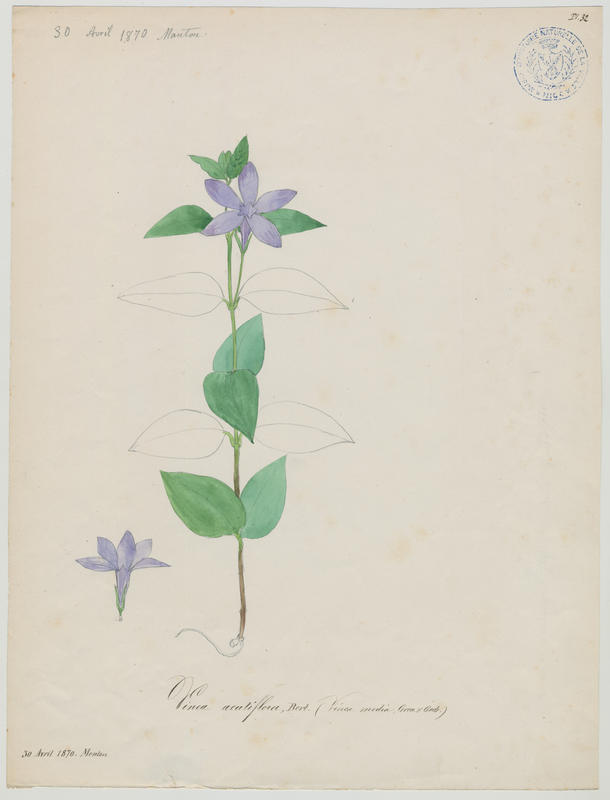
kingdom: Plantae
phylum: Tracheophyta
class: Magnoliopsida
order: Gentianales
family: Apocynaceae
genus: Vinca
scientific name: Vinca difformis
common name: Intermediate periwinkle
